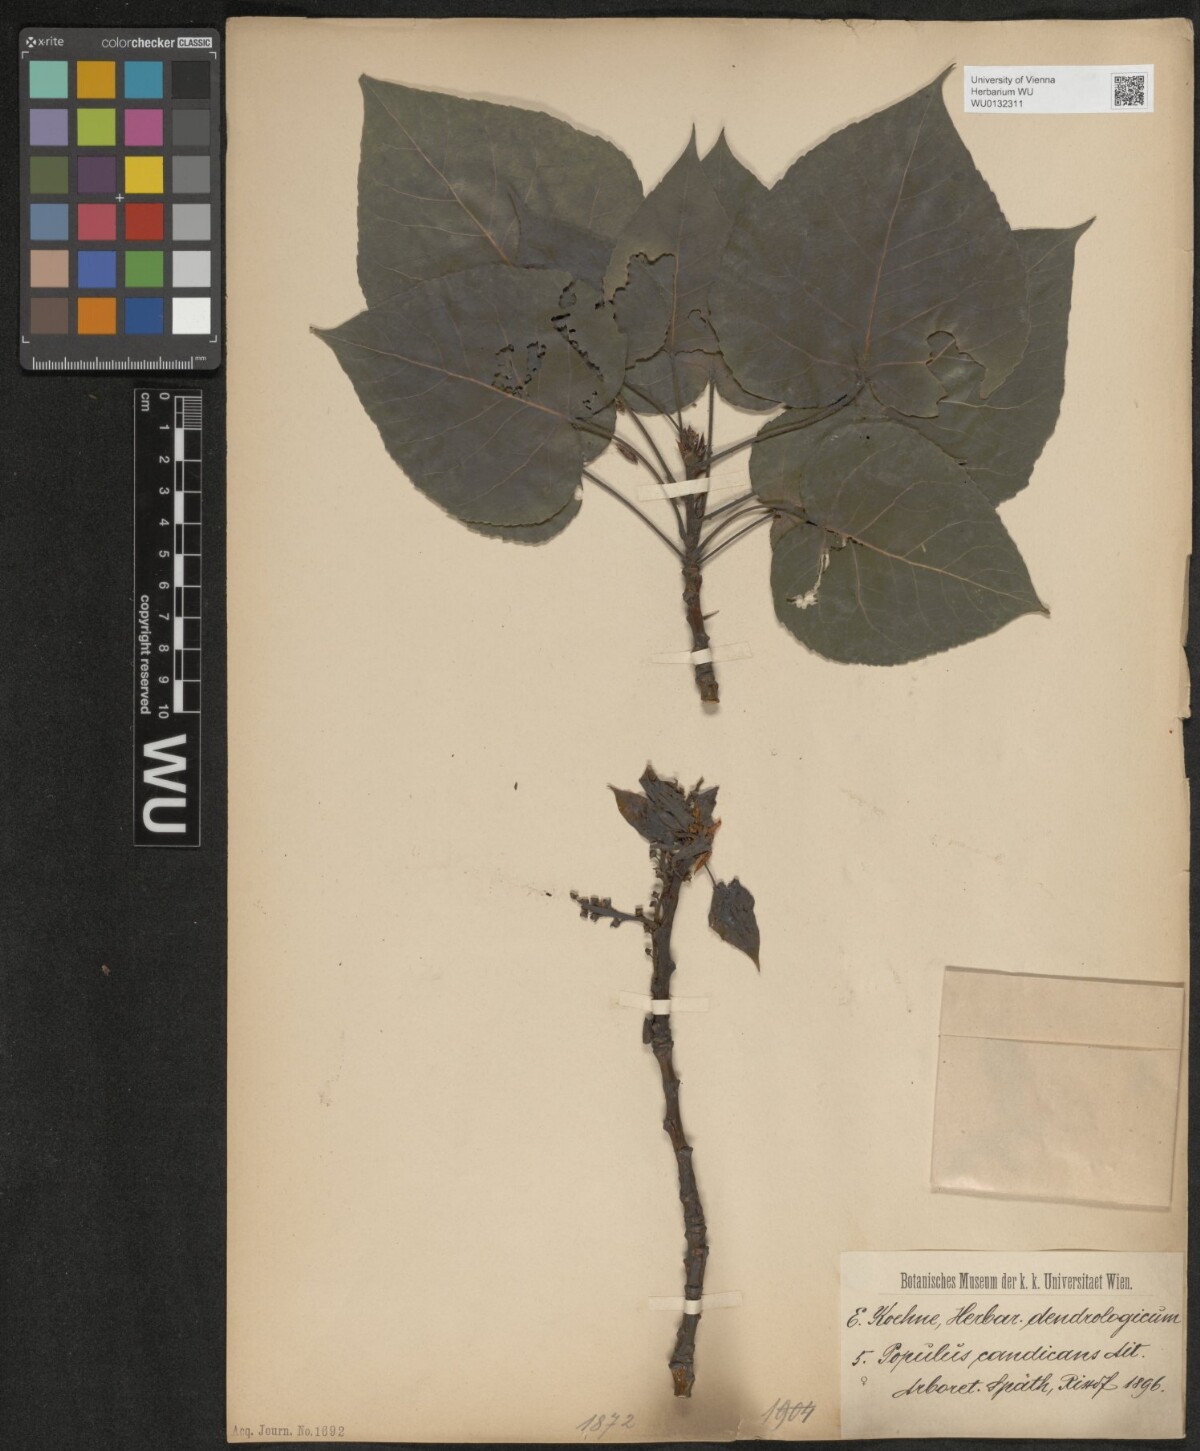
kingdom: Plantae
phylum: Tracheophyta
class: Magnoliopsida
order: Malpighiales
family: Salicaceae
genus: Populus
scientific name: Populus balsamifera
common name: Balsam poplar
